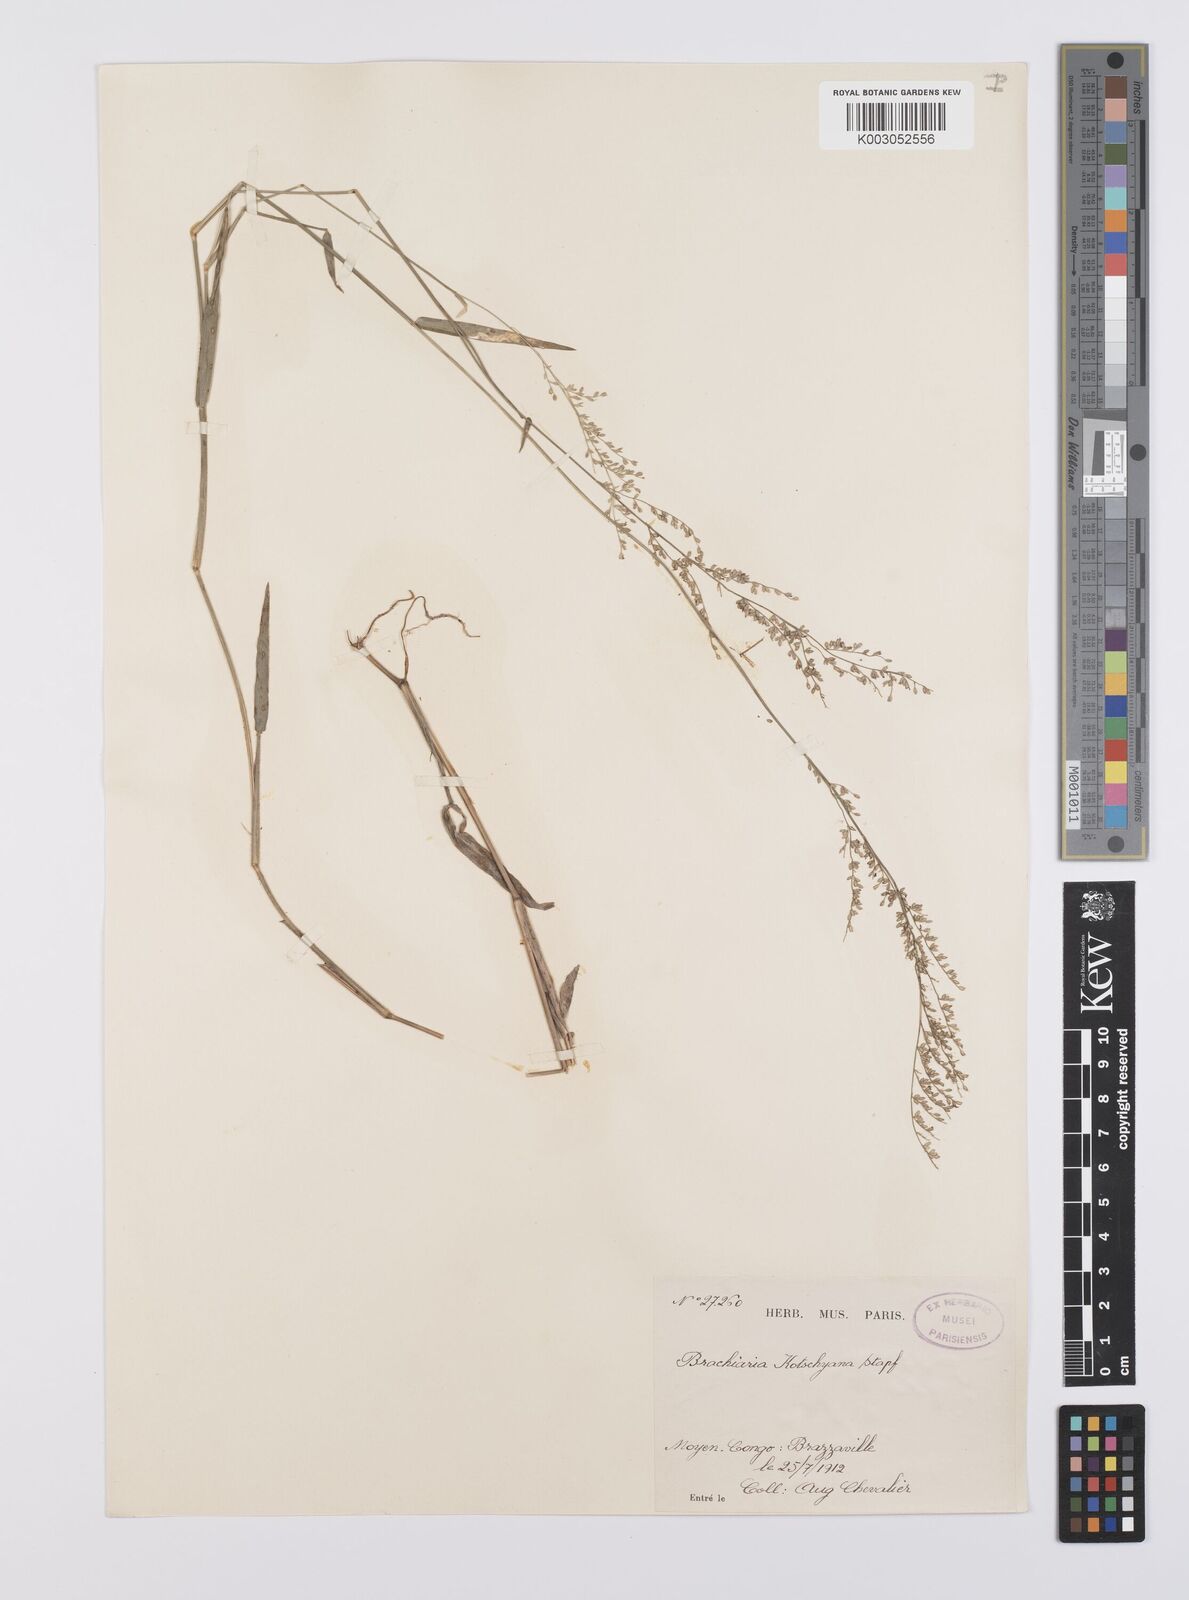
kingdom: Plantae
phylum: Tracheophyta
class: Liliopsida
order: Poales
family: Poaceae
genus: Urochloa
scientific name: Urochloa comata
